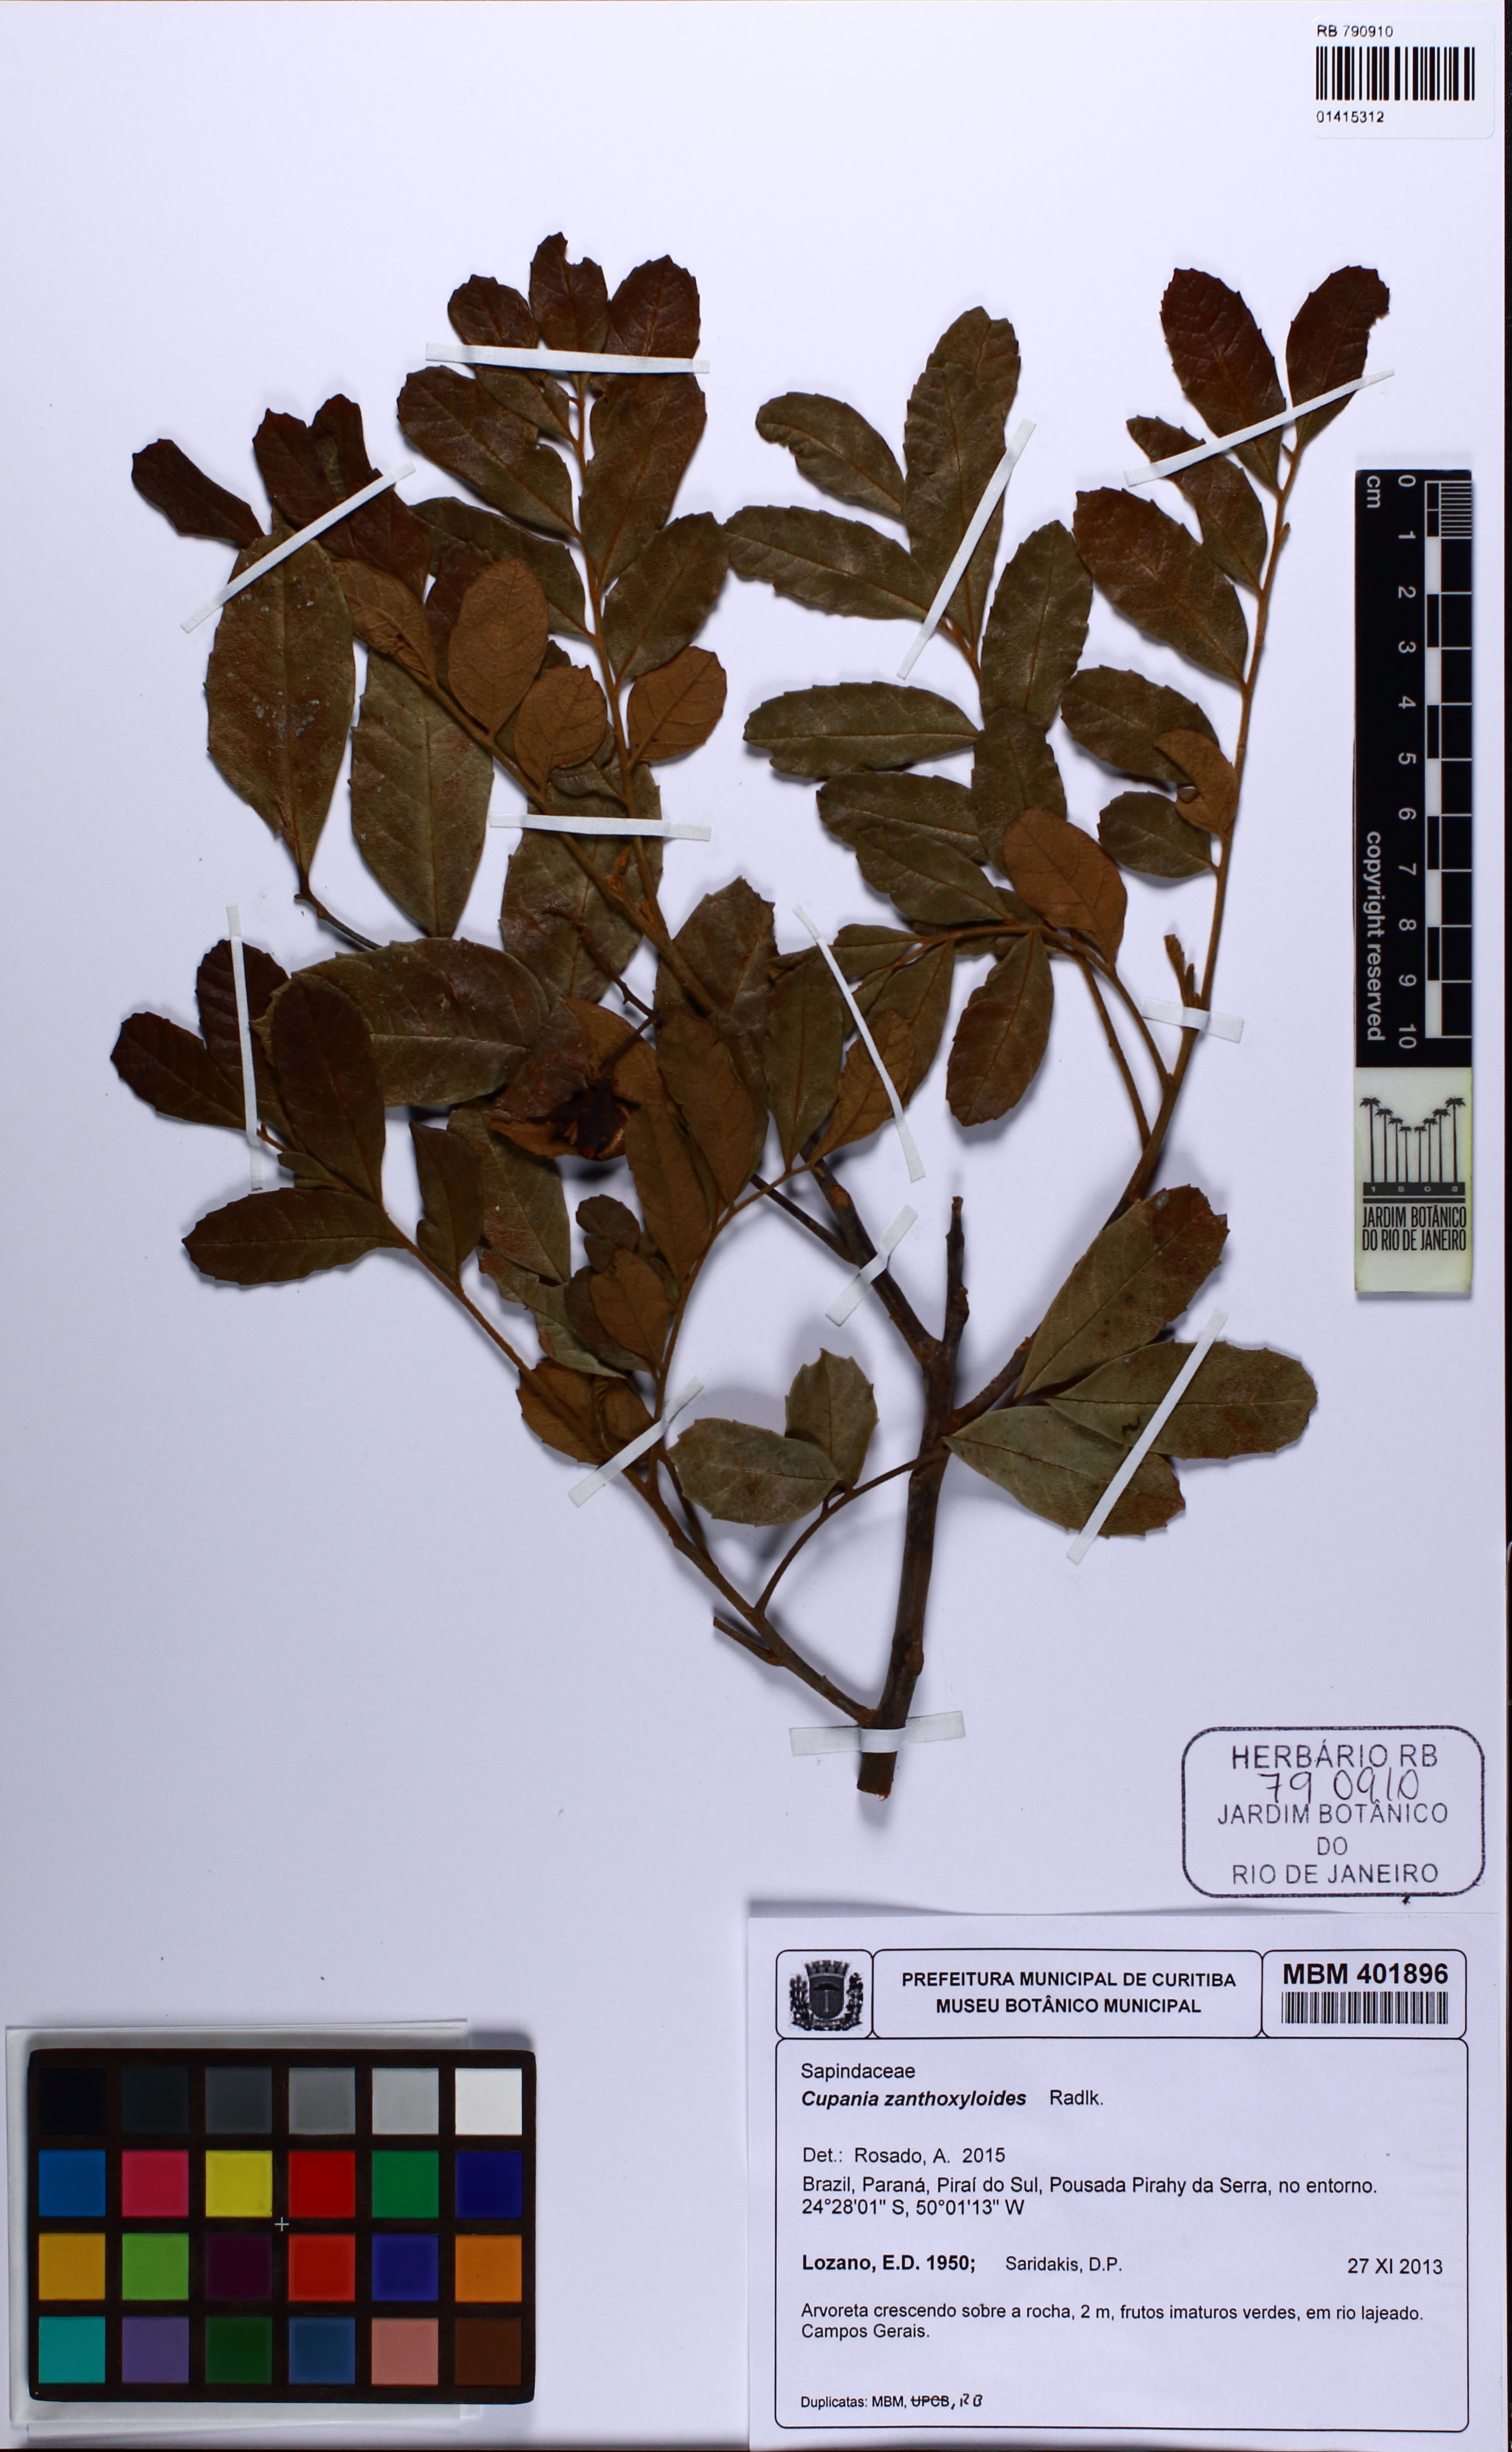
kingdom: Plantae
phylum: Tracheophyta
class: Magnoliopsida
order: Sapindales
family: Sapindaceae
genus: Cupania
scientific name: Cupania zanthoxyloides
